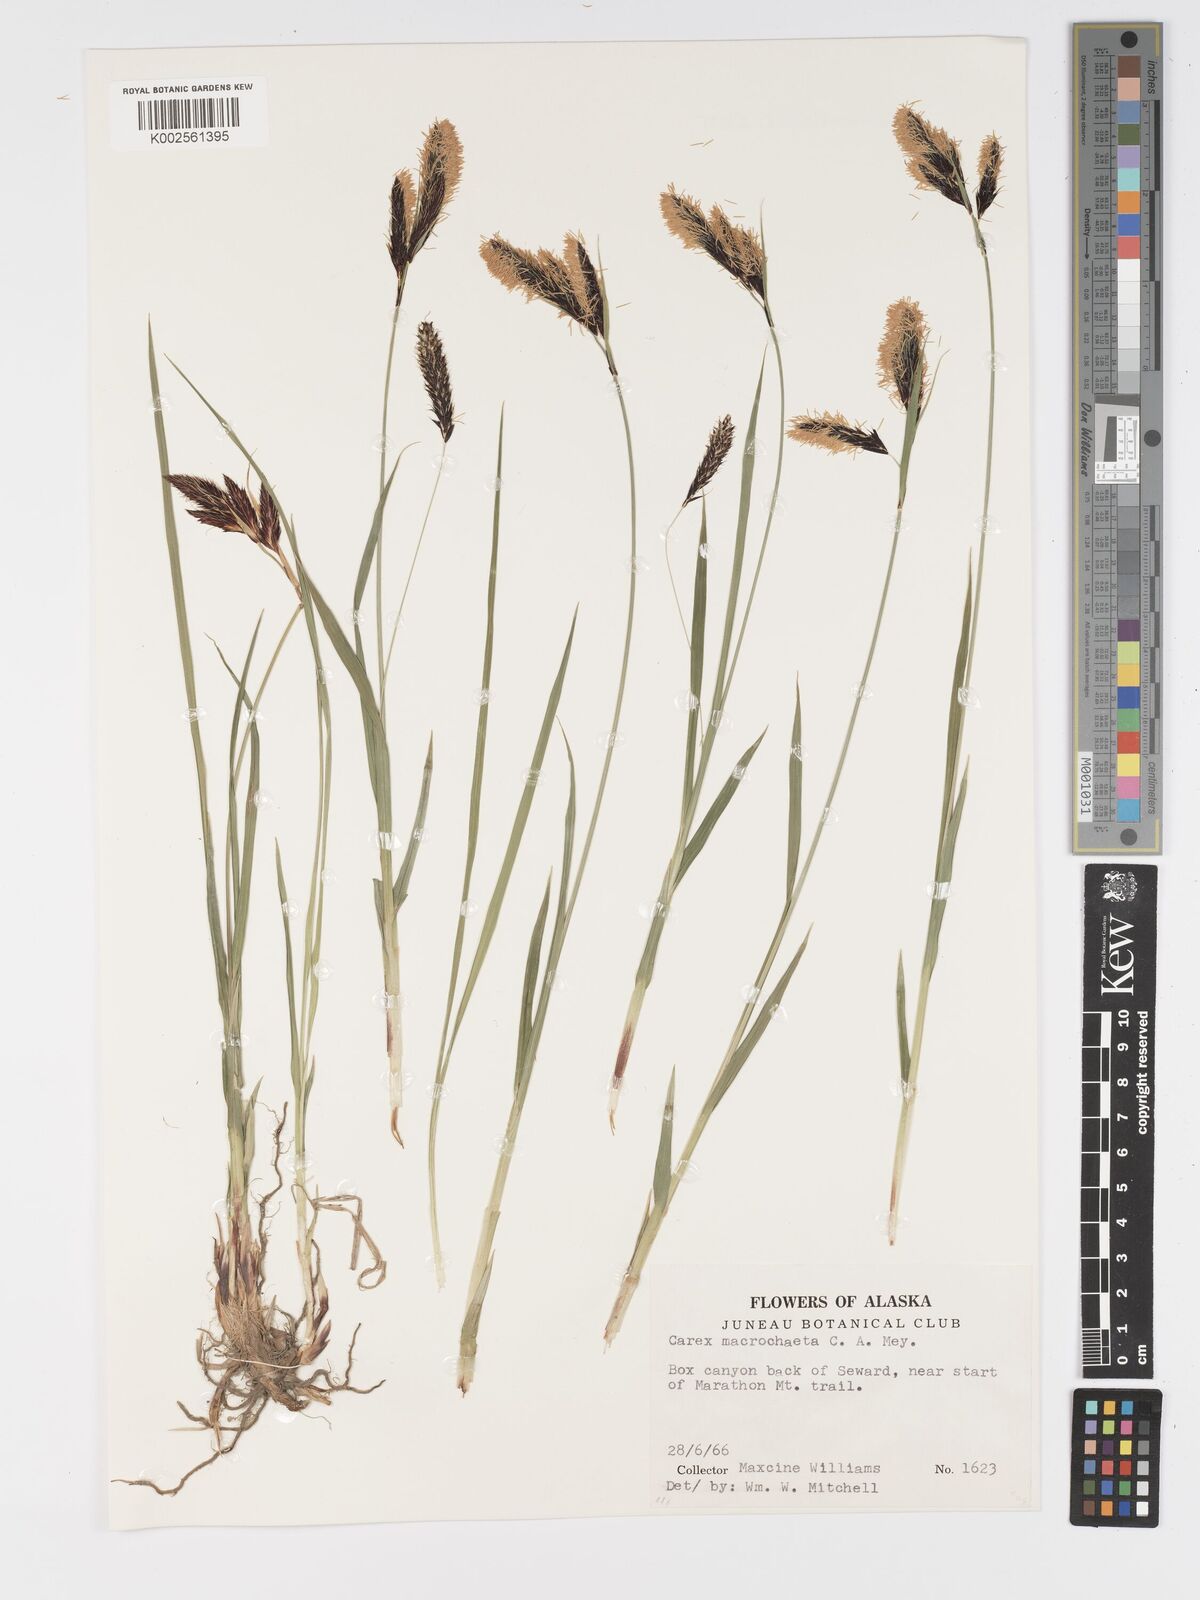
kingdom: Plantae
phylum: Tracheophyta
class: Liliopsida
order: Poales
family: Cyperaceae
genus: Carex
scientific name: Carex macrochaeta
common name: Alaska large awn sedge
